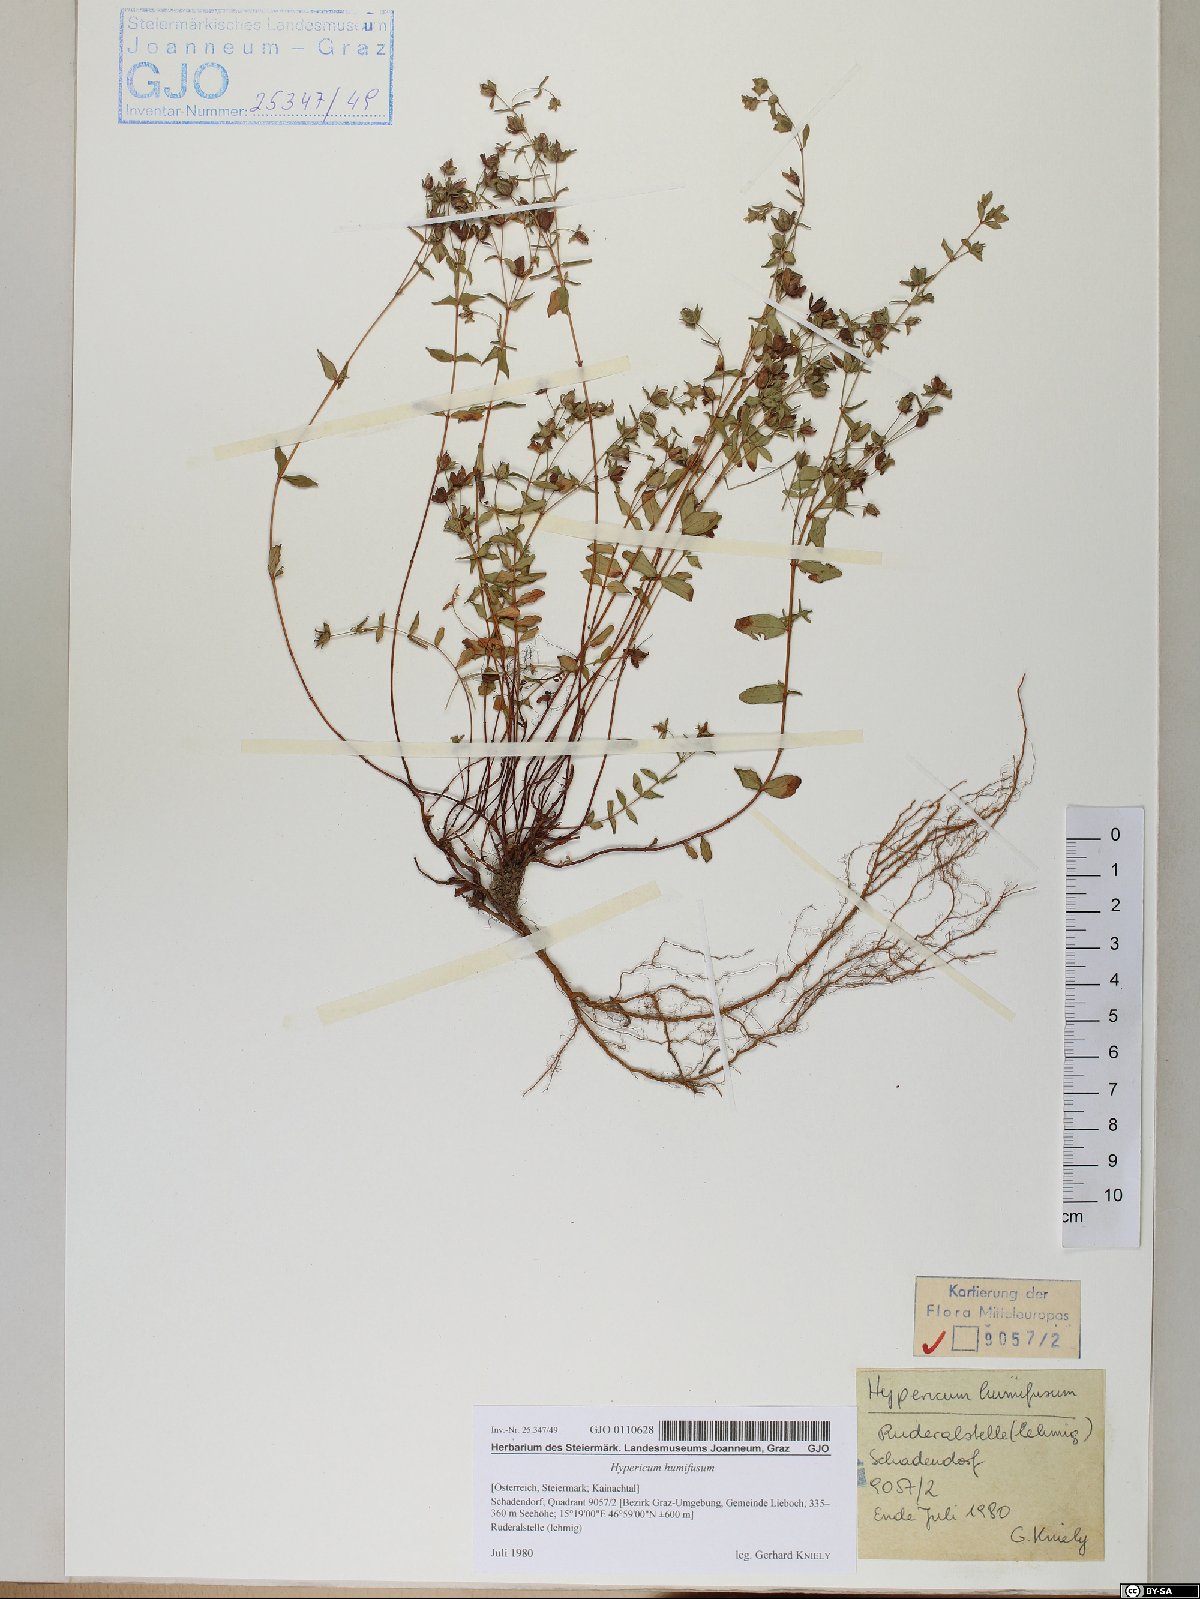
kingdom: Plantae
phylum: Tracheophyta
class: Magnoliopsida
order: Malpighiales
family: Hypericaceae
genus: Hypericum
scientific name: Hypericum humifusum
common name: Trailing st. john's-wort
